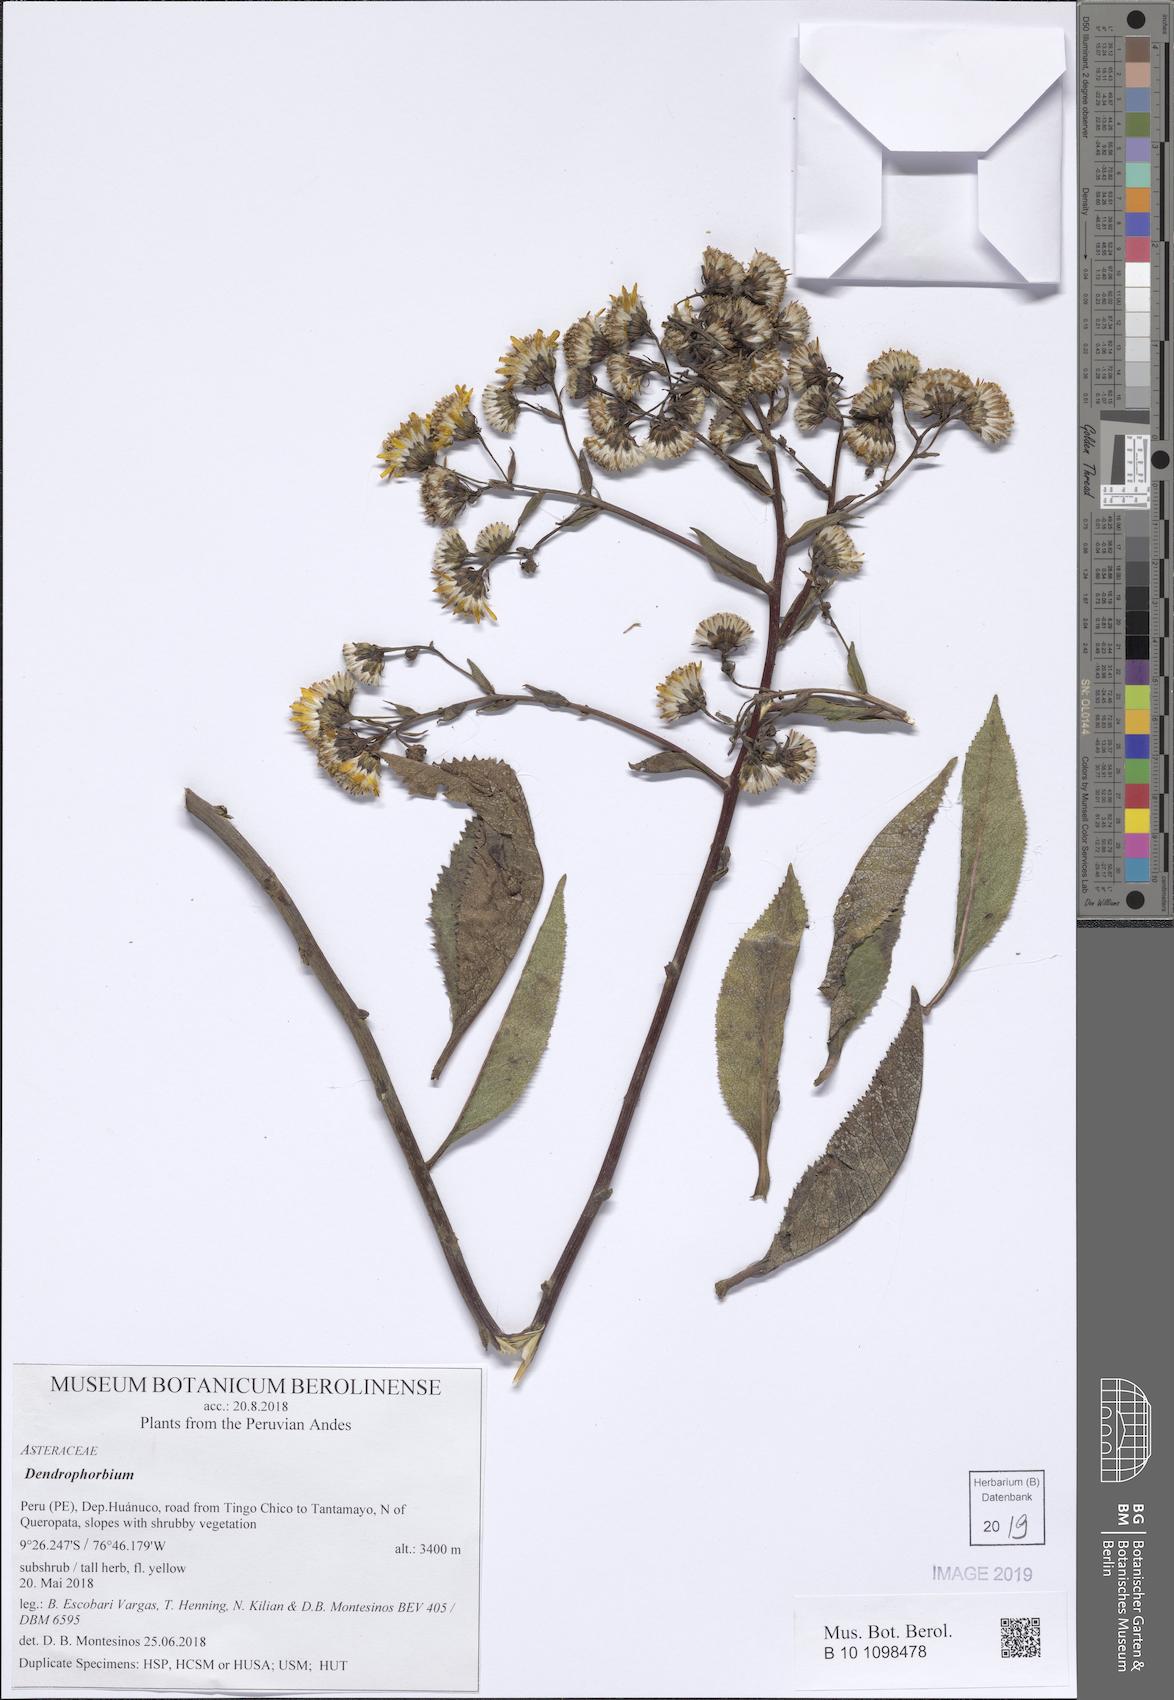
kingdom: Plantae
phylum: Tracheophyta
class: Magnoliopsida
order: Asterales
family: Asteraceae
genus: Dendrophorbium
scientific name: Dendrophorbium elatum
